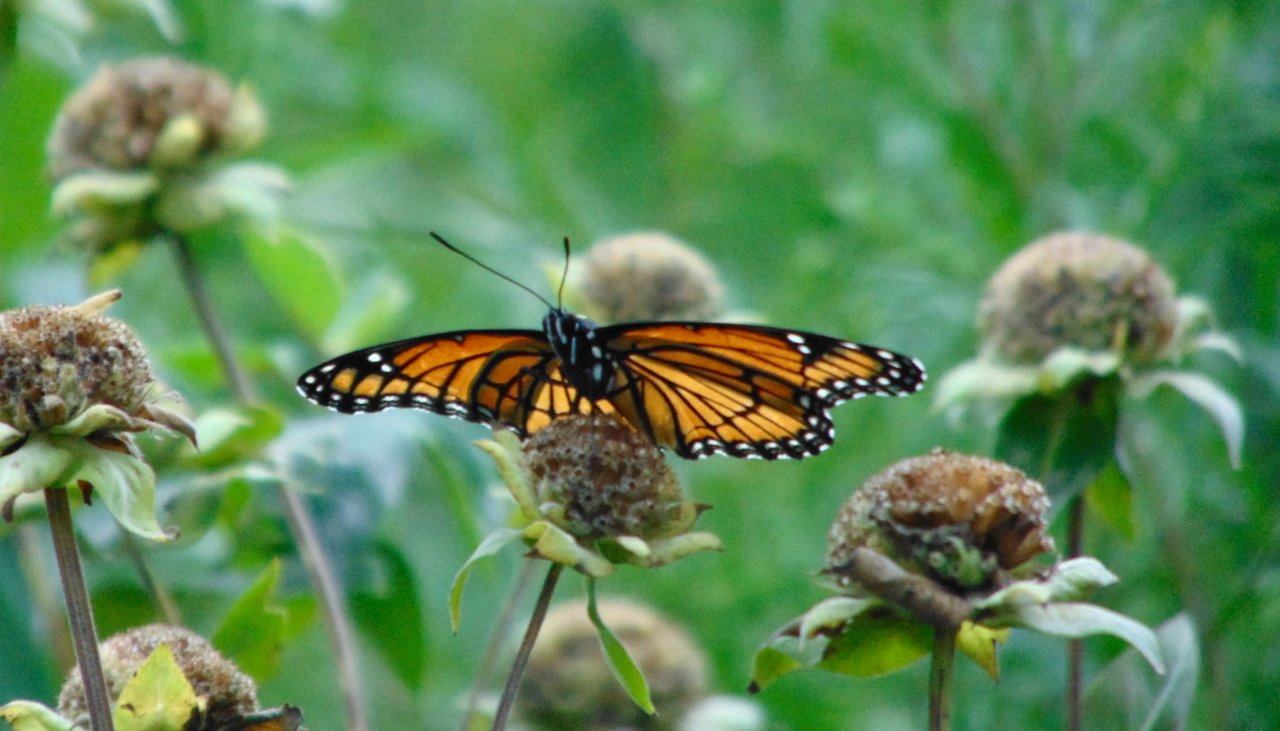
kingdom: Animalia
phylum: Arthropoda
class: Insecta
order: Lepidoptera
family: Nymphalidae
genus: Limenitis
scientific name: Limenitis archippus
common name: Viceroy
